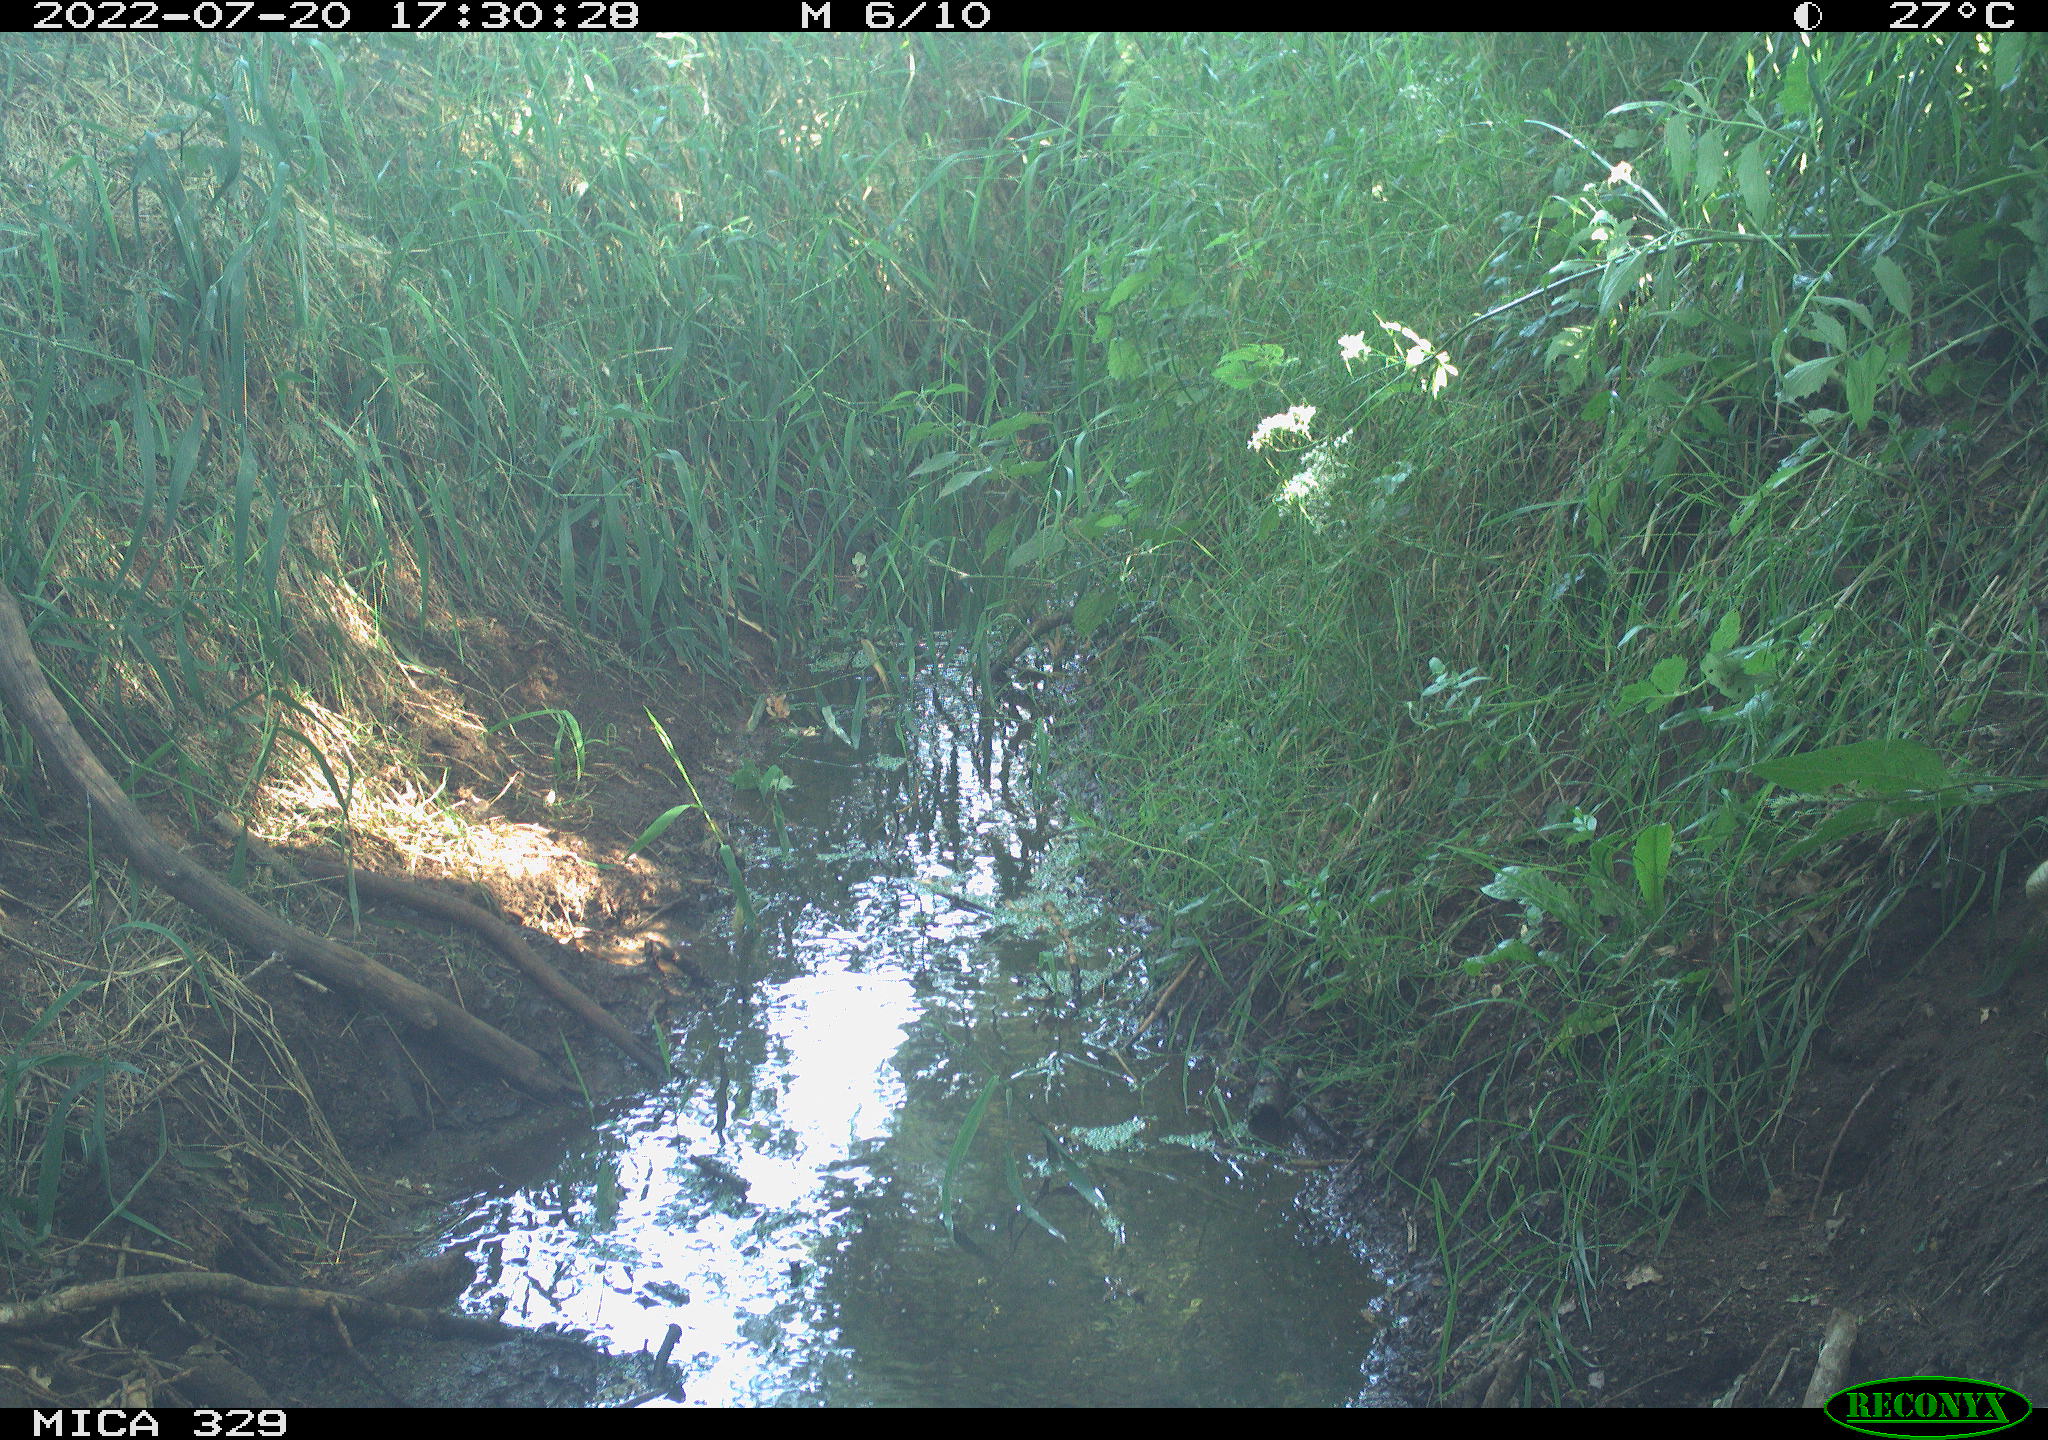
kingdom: Animalia
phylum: Chordata
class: Aves
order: Galliformes
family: Phasianidae
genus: Phasianus
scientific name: Phasianus colchicus
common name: Common pheasant
